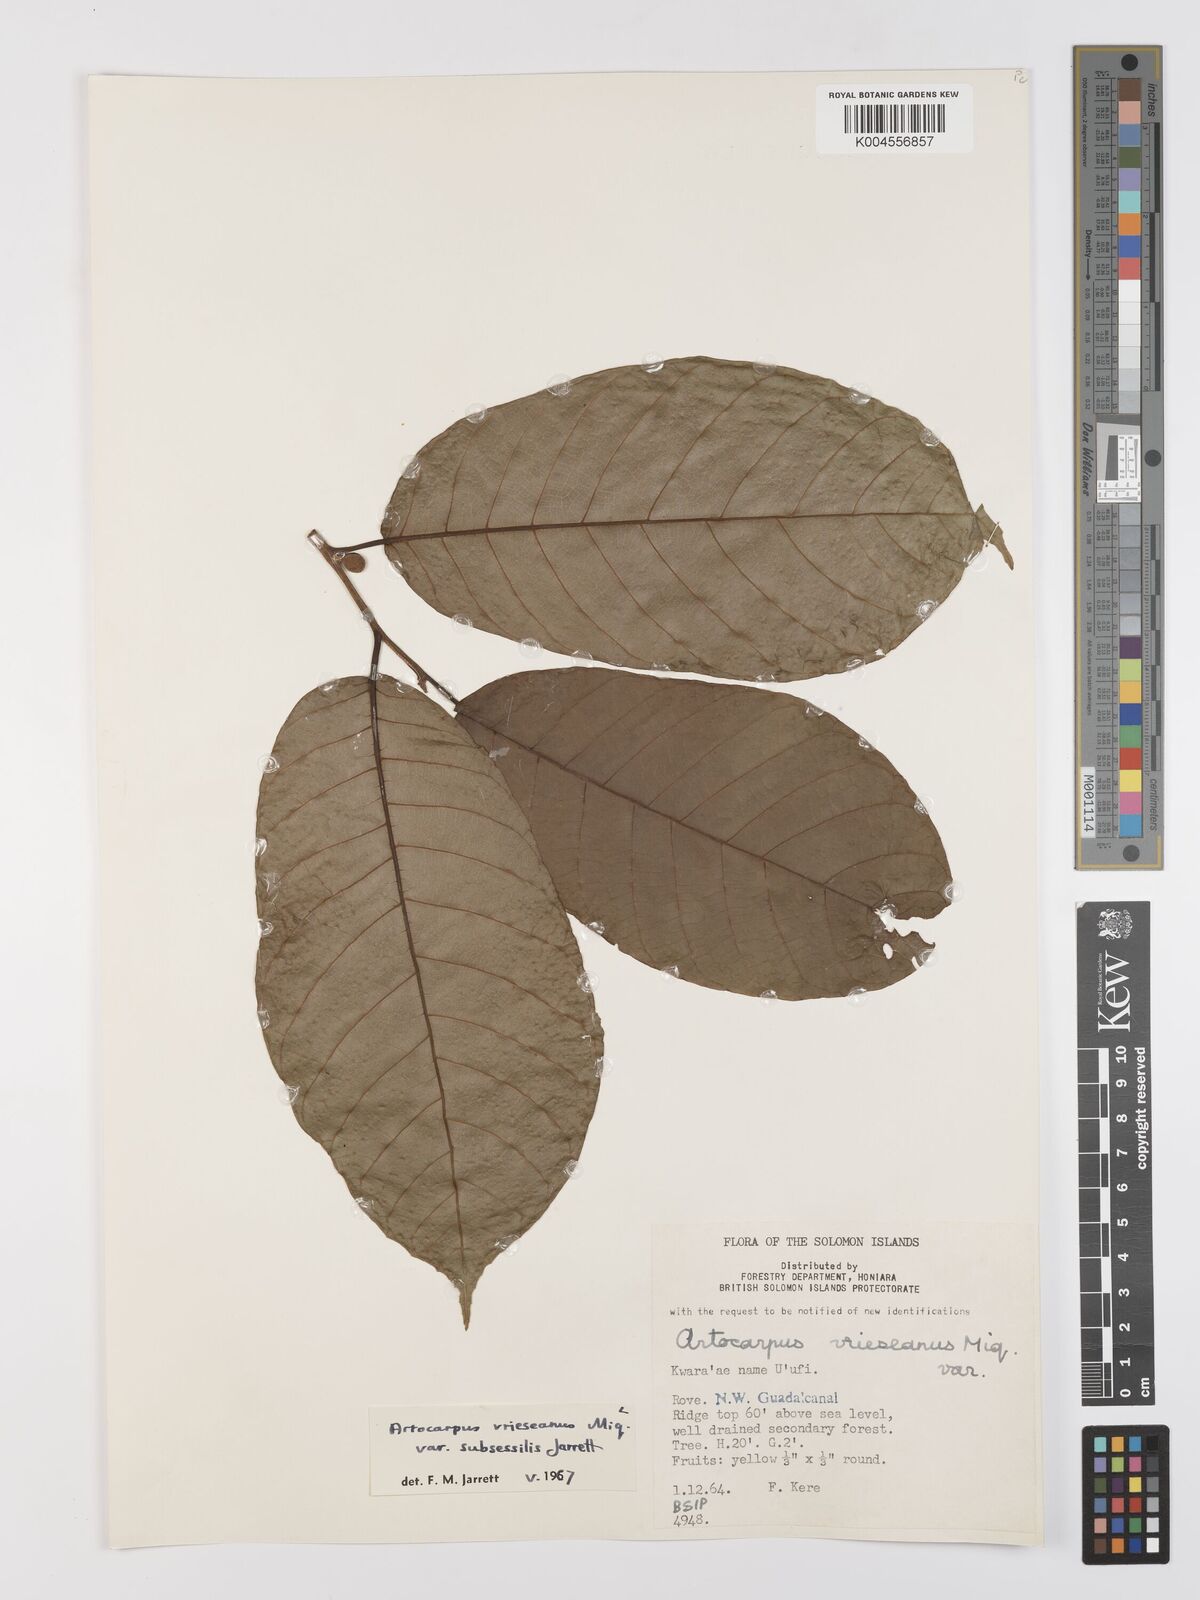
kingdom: Plantae
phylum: Tracheophyta
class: Magnoliopsida
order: Rosales
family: Moraceae
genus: Artocarpus
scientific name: Artocarpus vrieseanus
